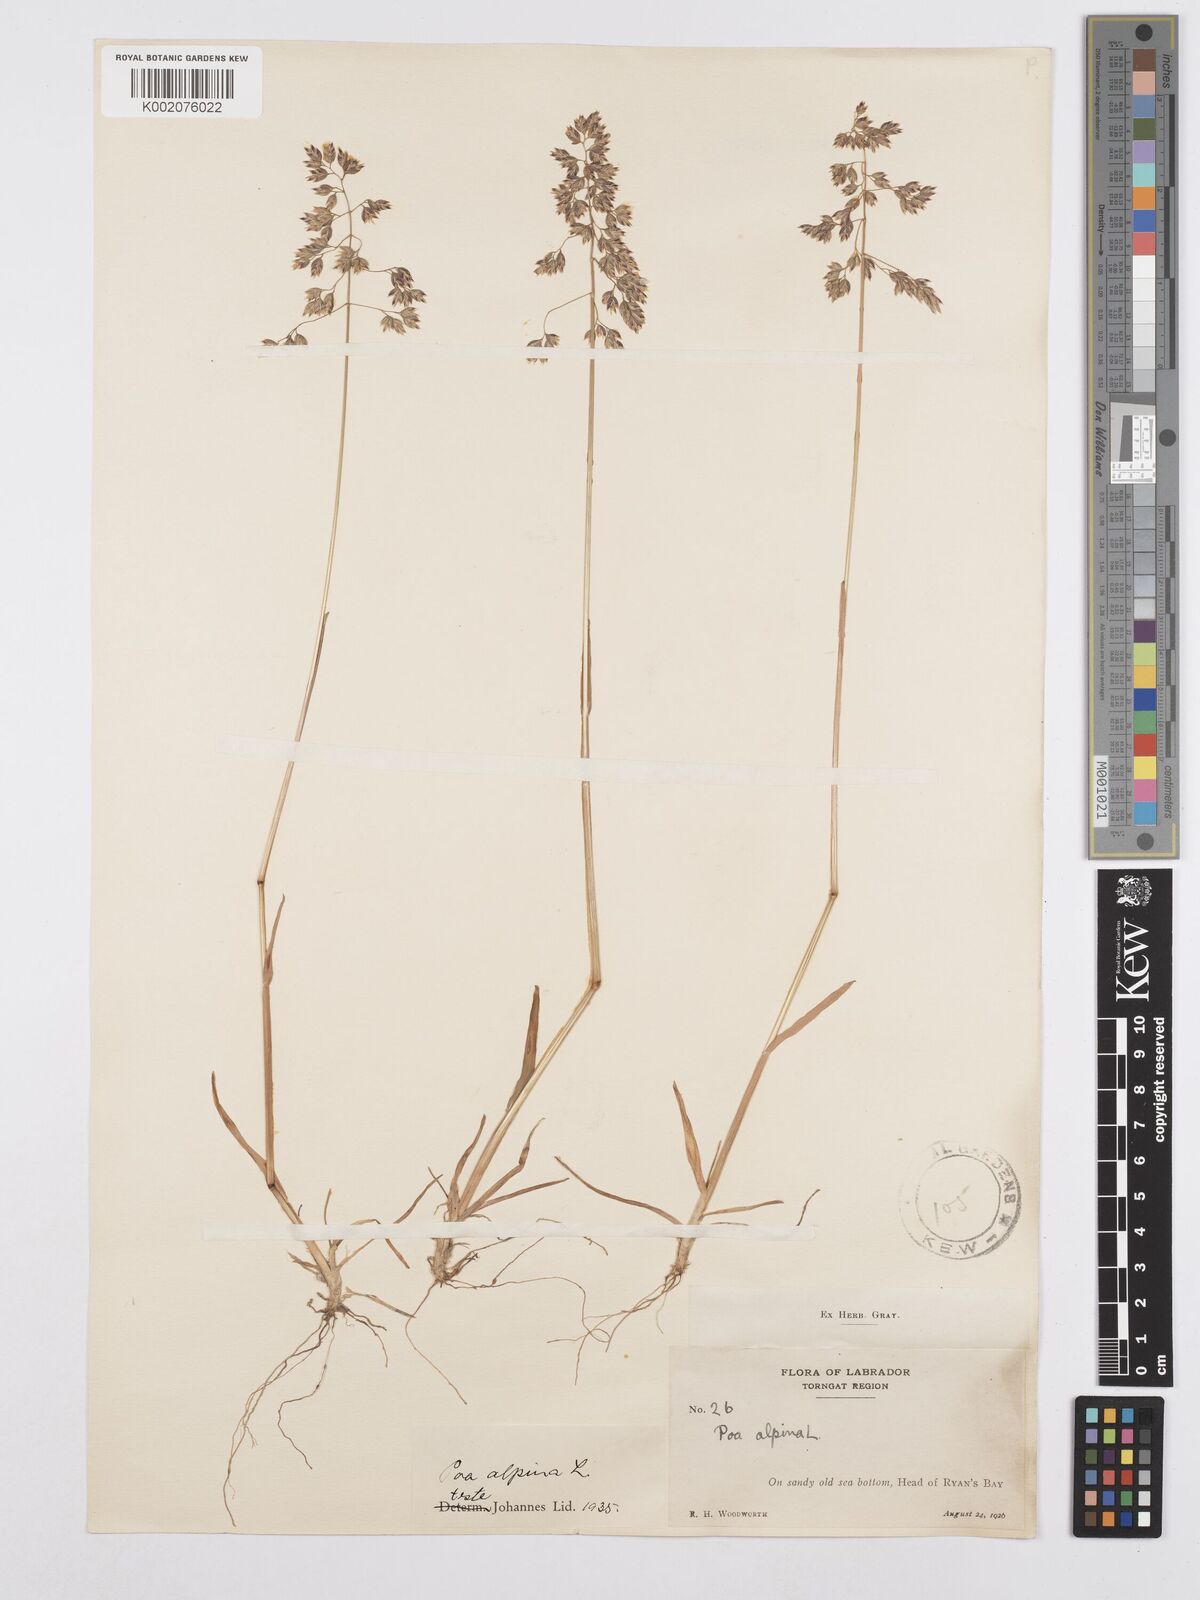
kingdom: Plantae
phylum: Tracheophyta
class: Liliopsida
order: Poales
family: Poaceae
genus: Poa
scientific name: Poa alpina
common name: Alpine bluegrass
